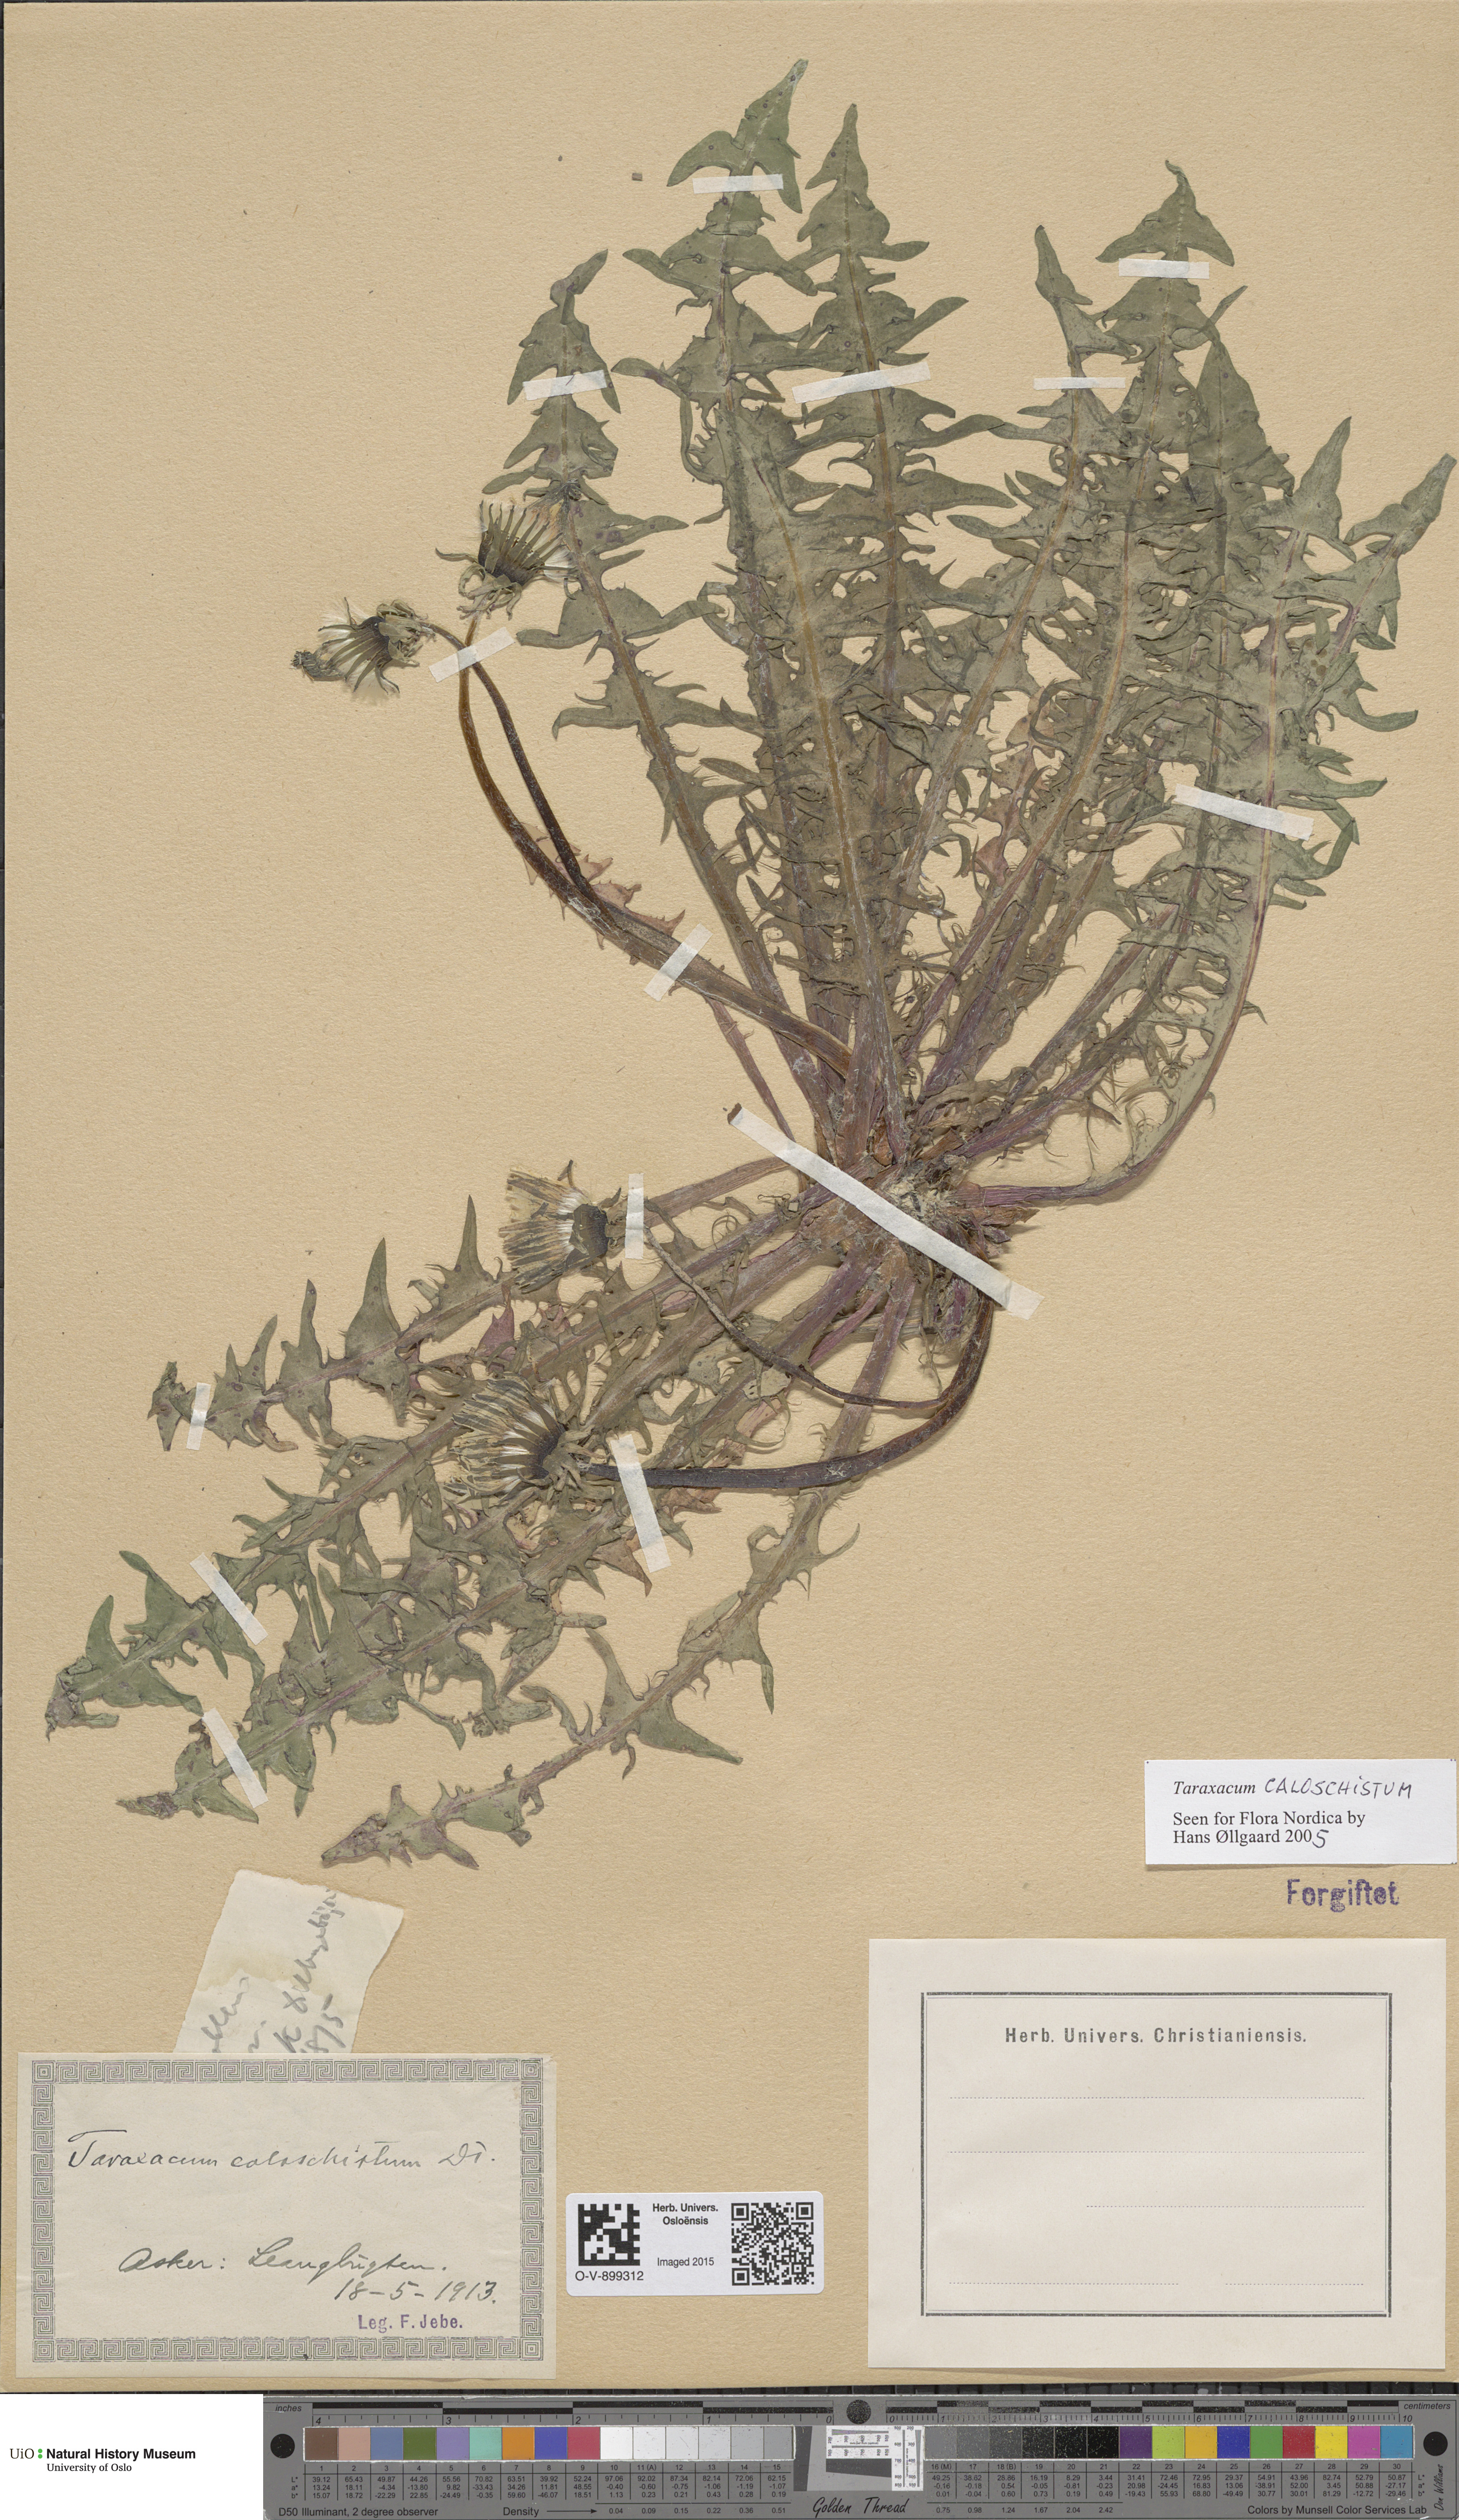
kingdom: Plantae
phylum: Tracheophyta
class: Magnoliopsida
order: Asterales
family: Asteraceae
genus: Taraxacum
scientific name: Taraxacum caloschistum
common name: Brilliant-stalked dandelion
